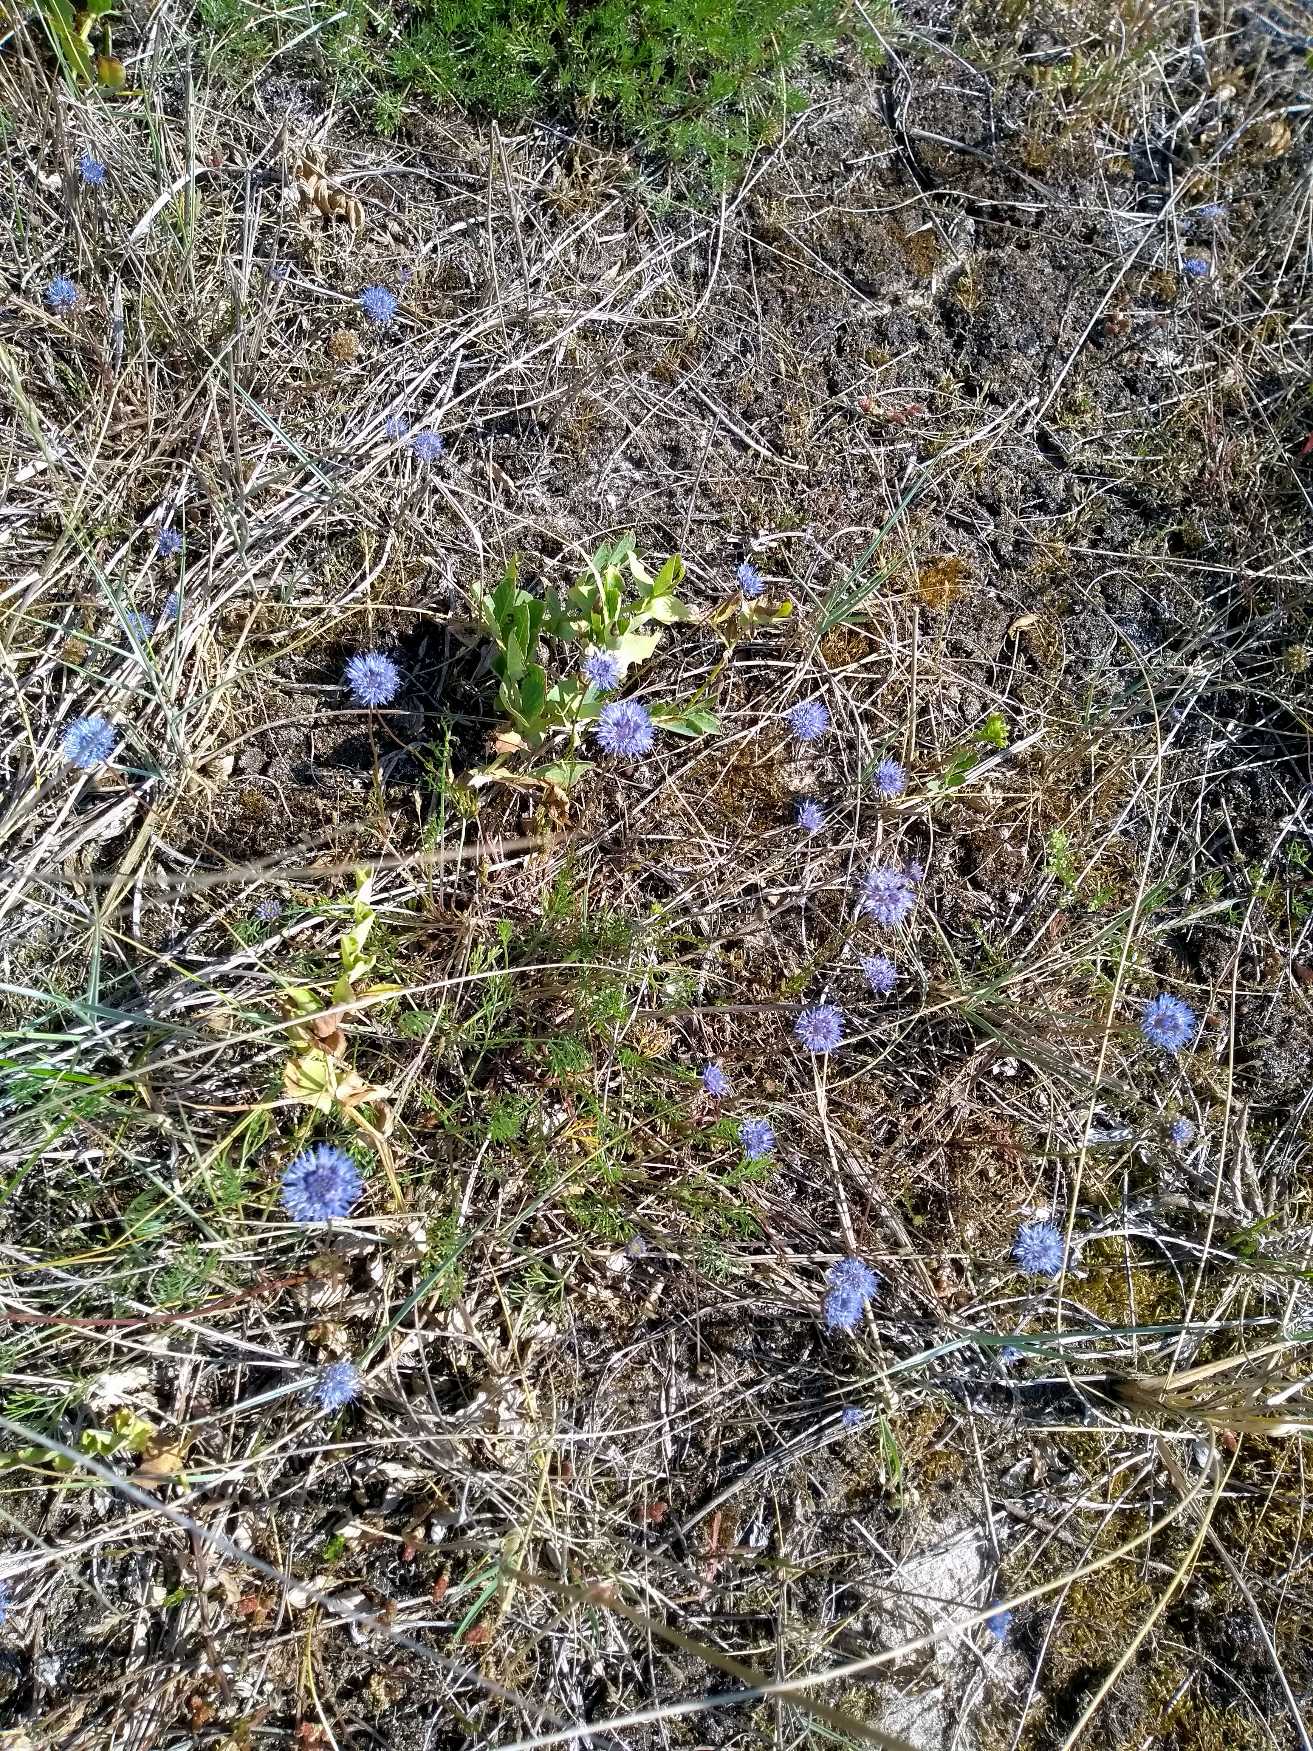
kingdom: Plantae
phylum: Tracheophyta
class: Magnoliopsida
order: Asterales
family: Campanulaceae
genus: Jasione
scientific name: Jasione montana
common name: Blåmunke
